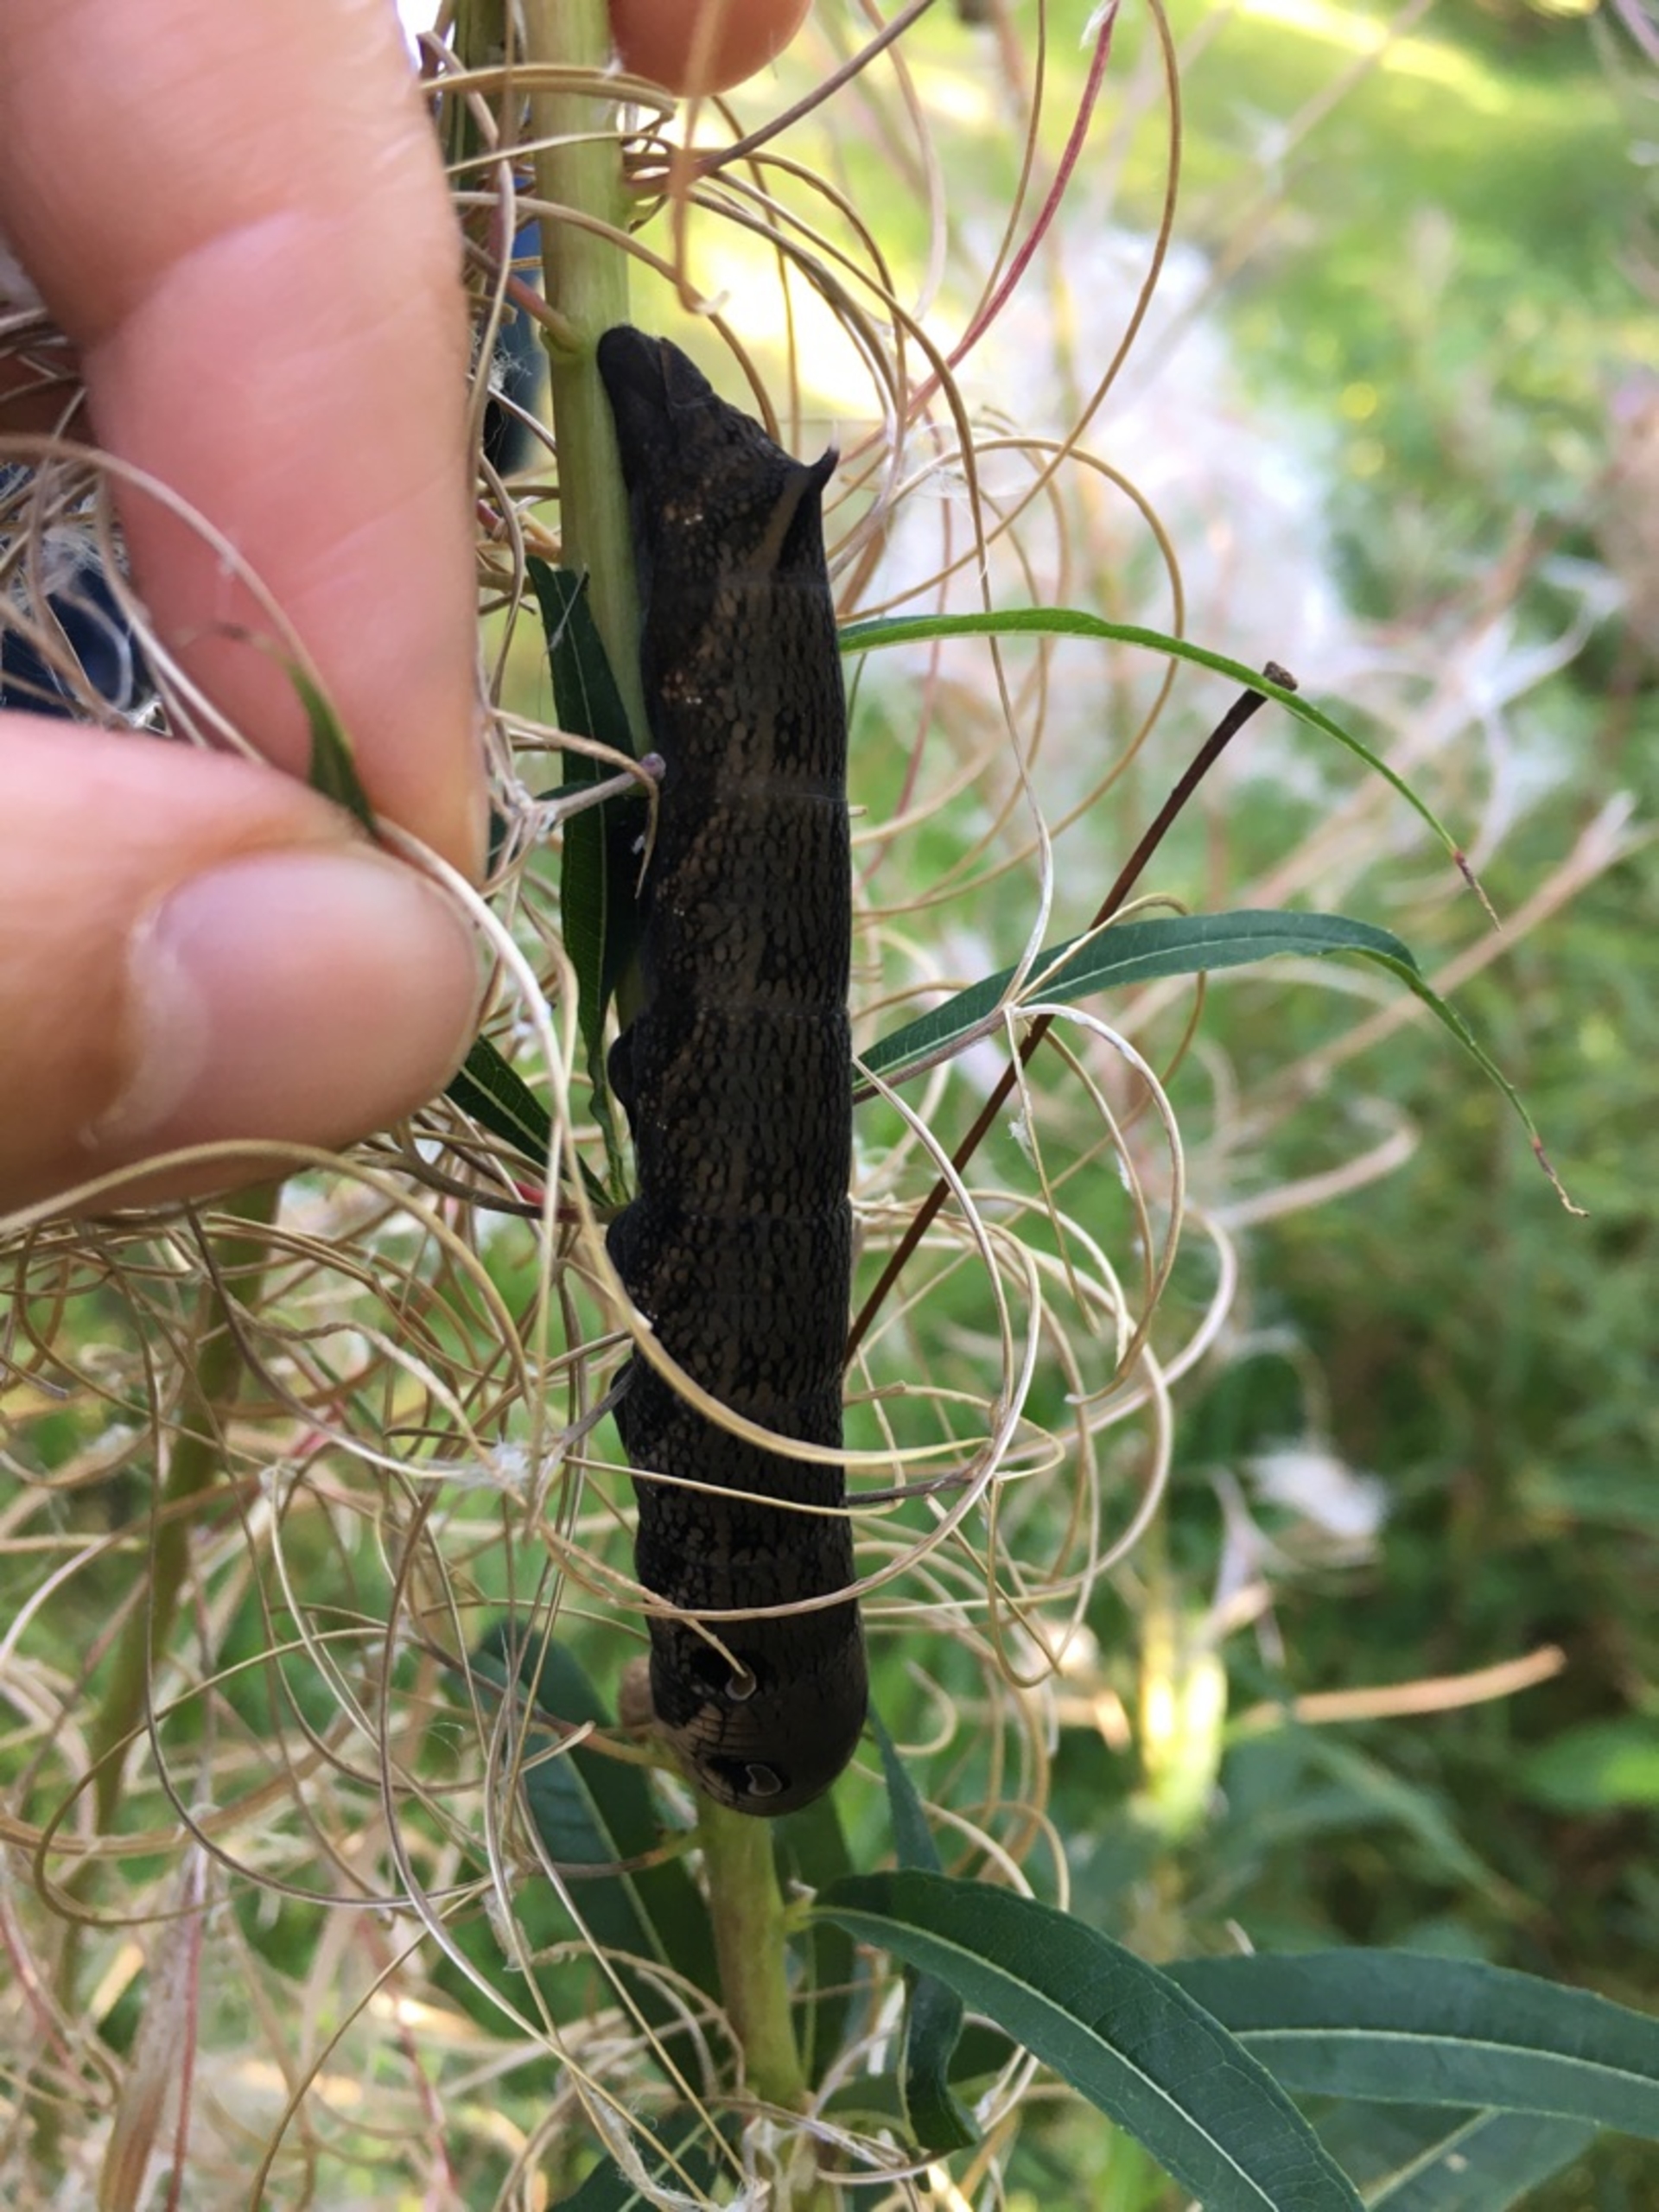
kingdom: Animalia
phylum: Arthropoda
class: Insecta
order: Lepidoptera
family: Sphingidae
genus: Deilephila
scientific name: Deilephila elpenor
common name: Dueurtsværmer
